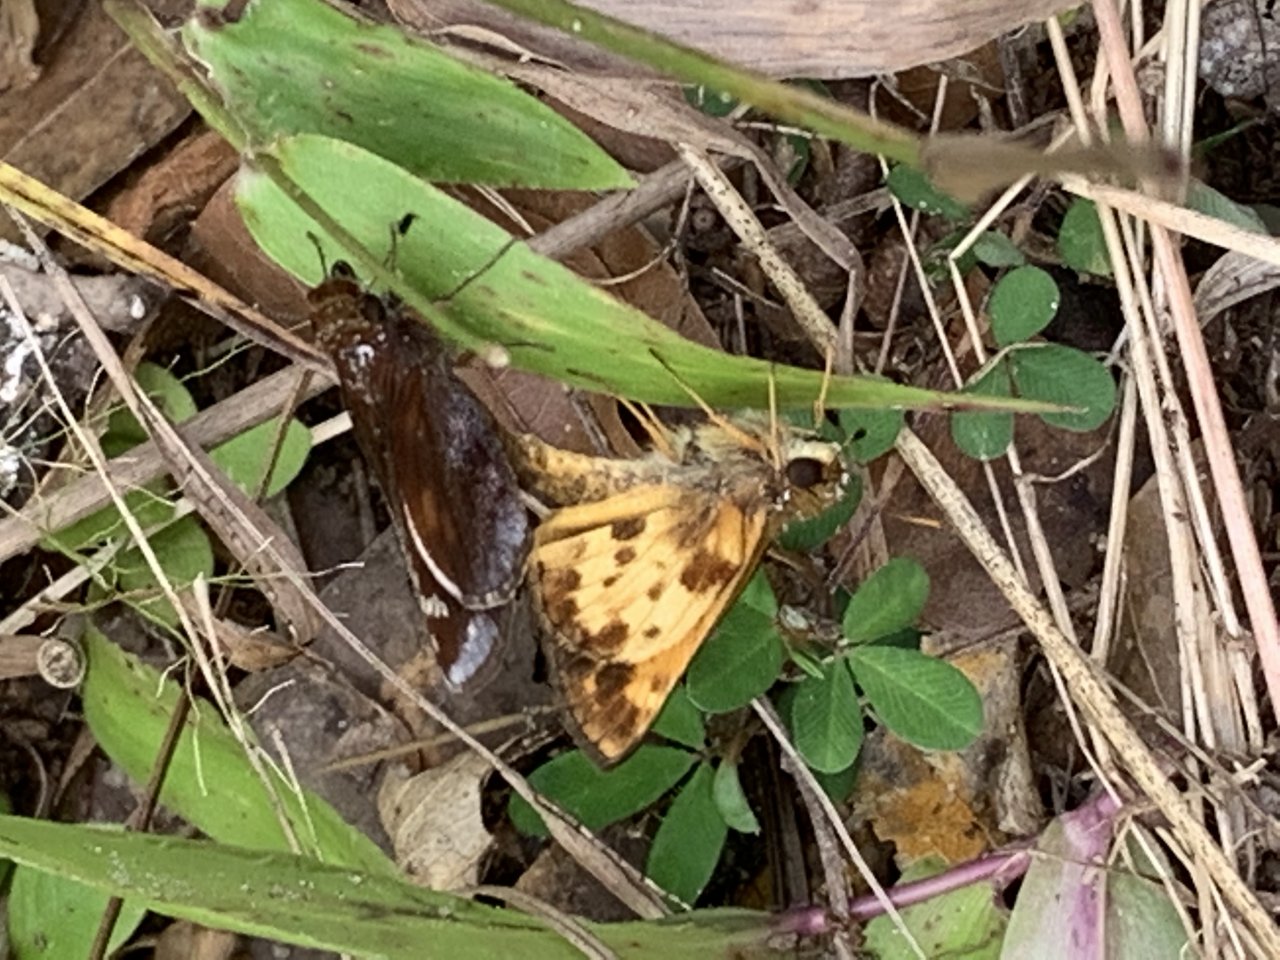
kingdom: Animalia
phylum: Arthropoda
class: Insecta
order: Lepidoptera
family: Hesperiidae
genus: Lon
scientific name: Lon zabulon
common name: Zabulon Skipper
